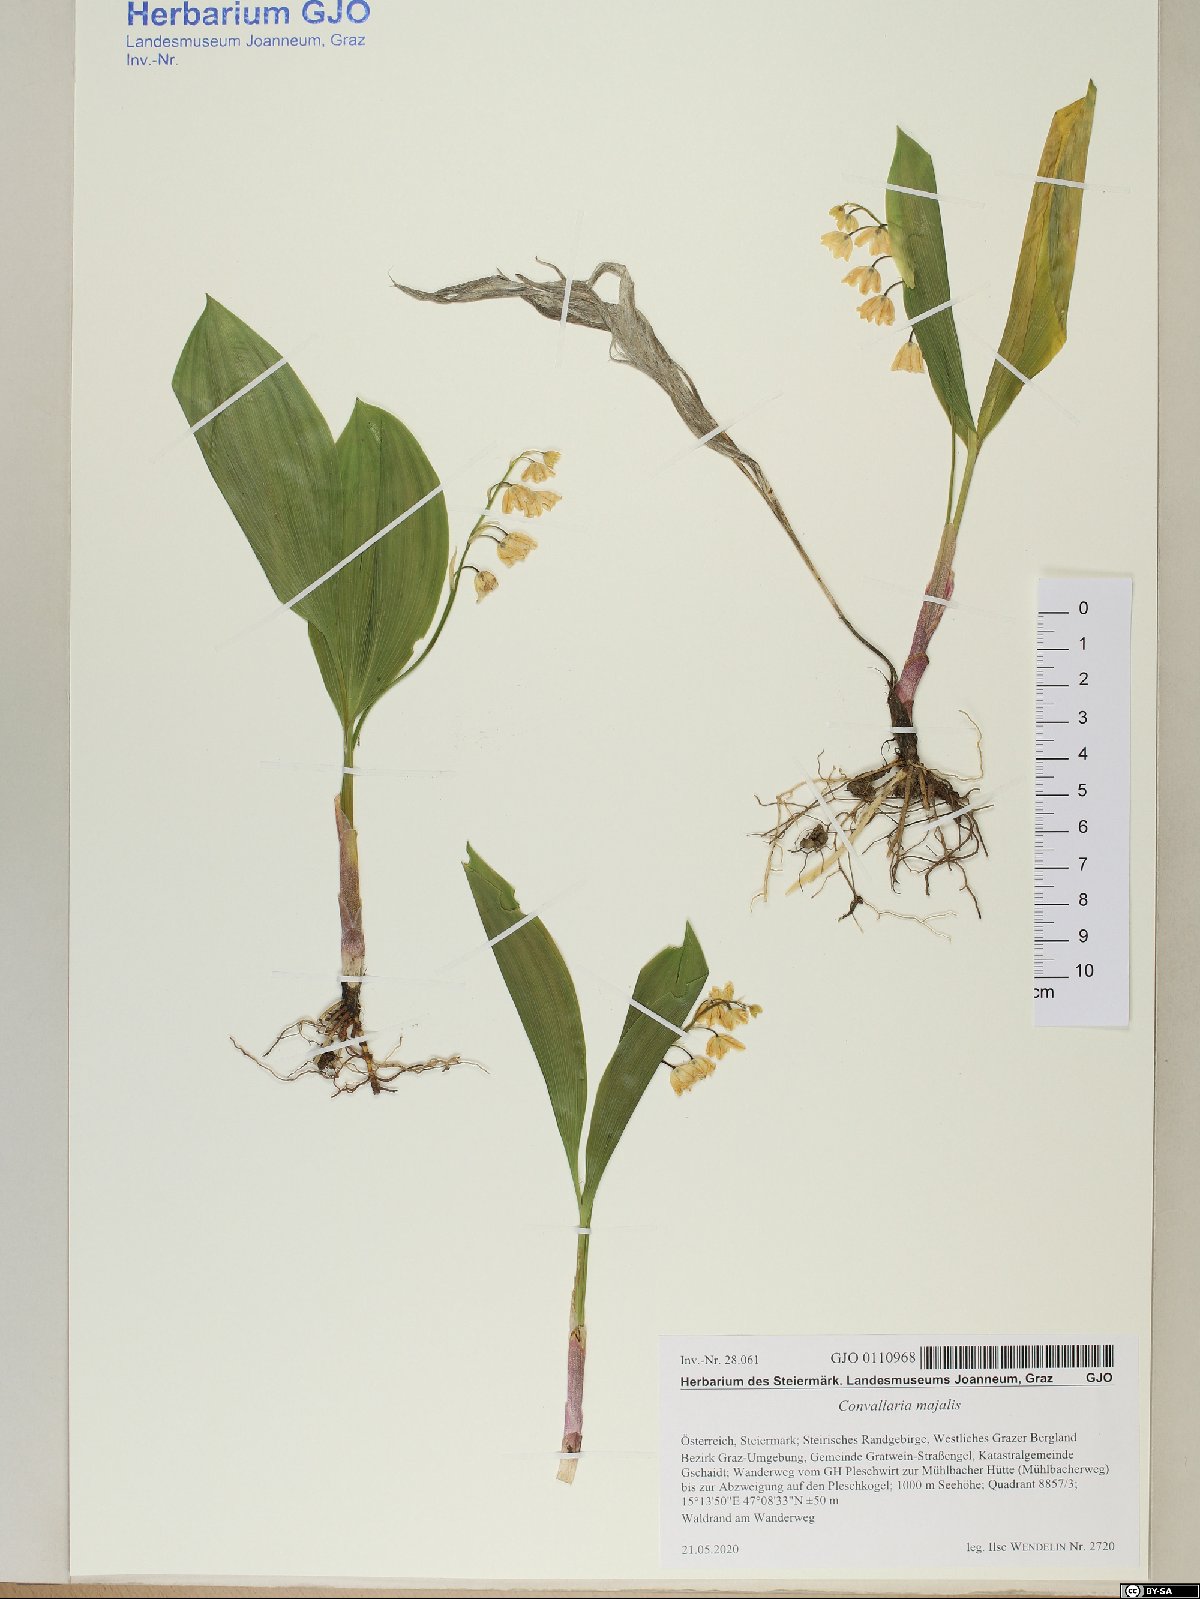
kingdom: Plantae
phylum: Tracheophyta
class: Liliopsida
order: Asparagales
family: Asparagaceae
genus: Convallaria
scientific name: Convallaria majalis
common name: Lily-of-the-valley
